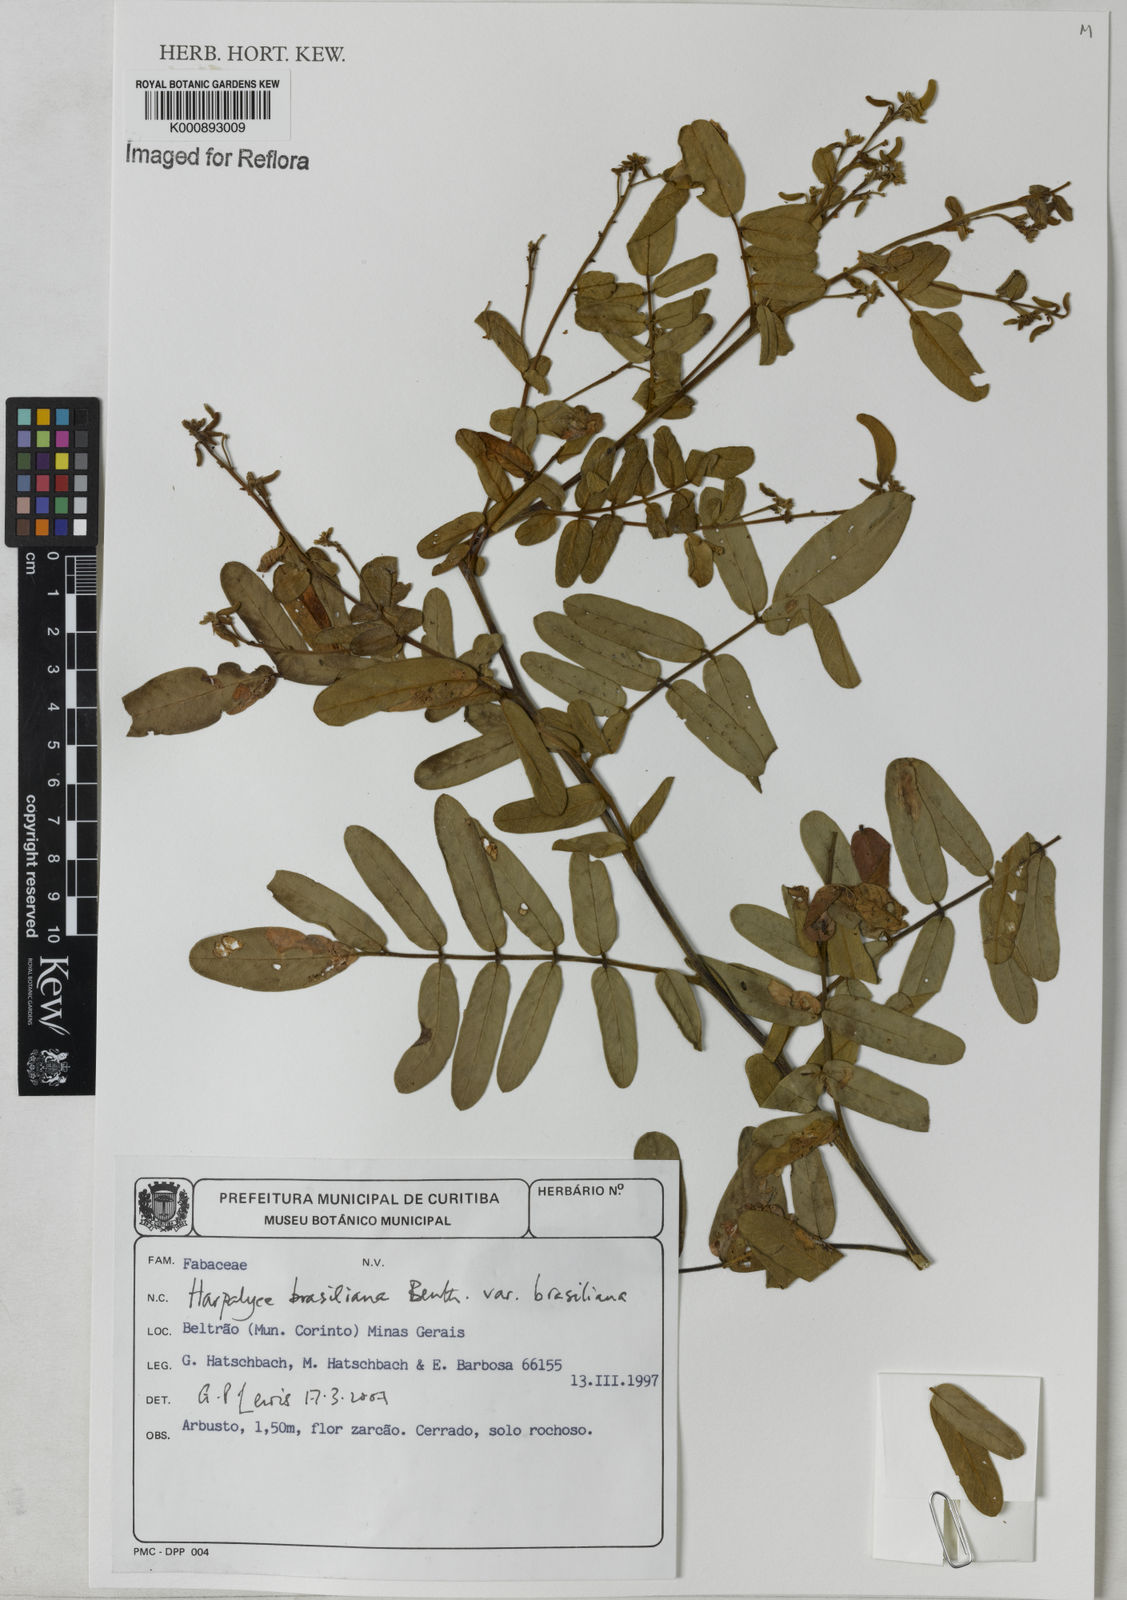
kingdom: Plantae
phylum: Tracheophyta
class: Magnoliopsida
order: Fabales
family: Fabaceae
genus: Harpalyce
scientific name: Harpalyce brasiliana
